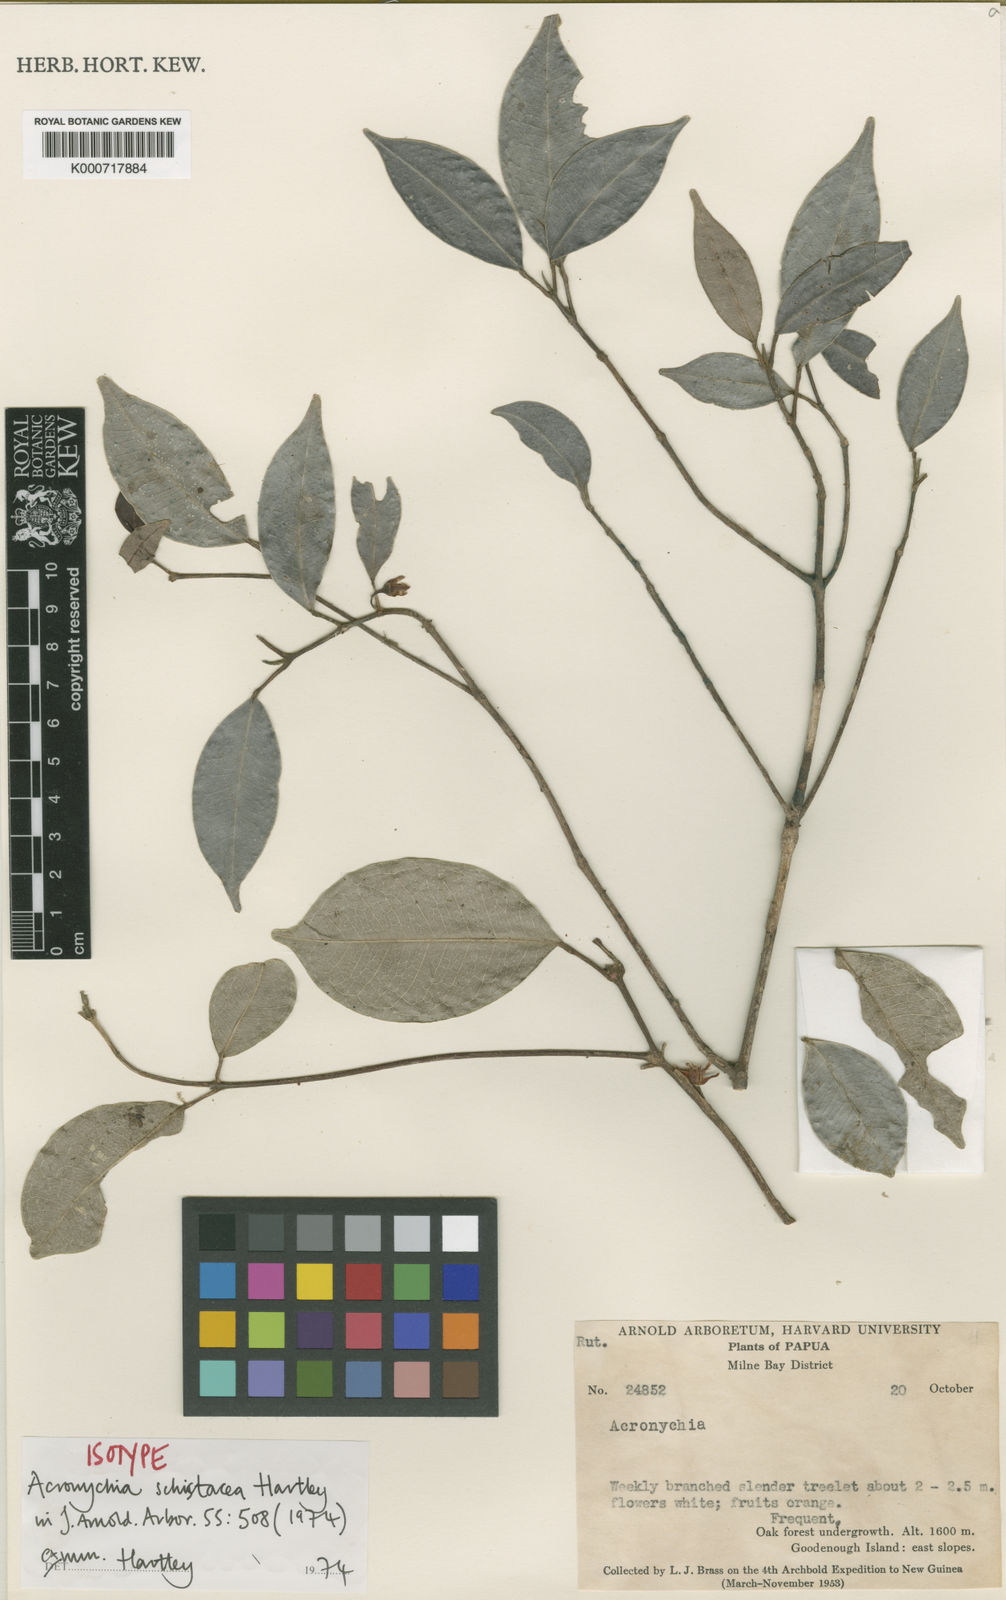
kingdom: Plantae
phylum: Tracheophyta
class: Magnoliopsida
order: Sapindales
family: Rutaceae
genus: Acronychia
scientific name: Acronychia schistacea
